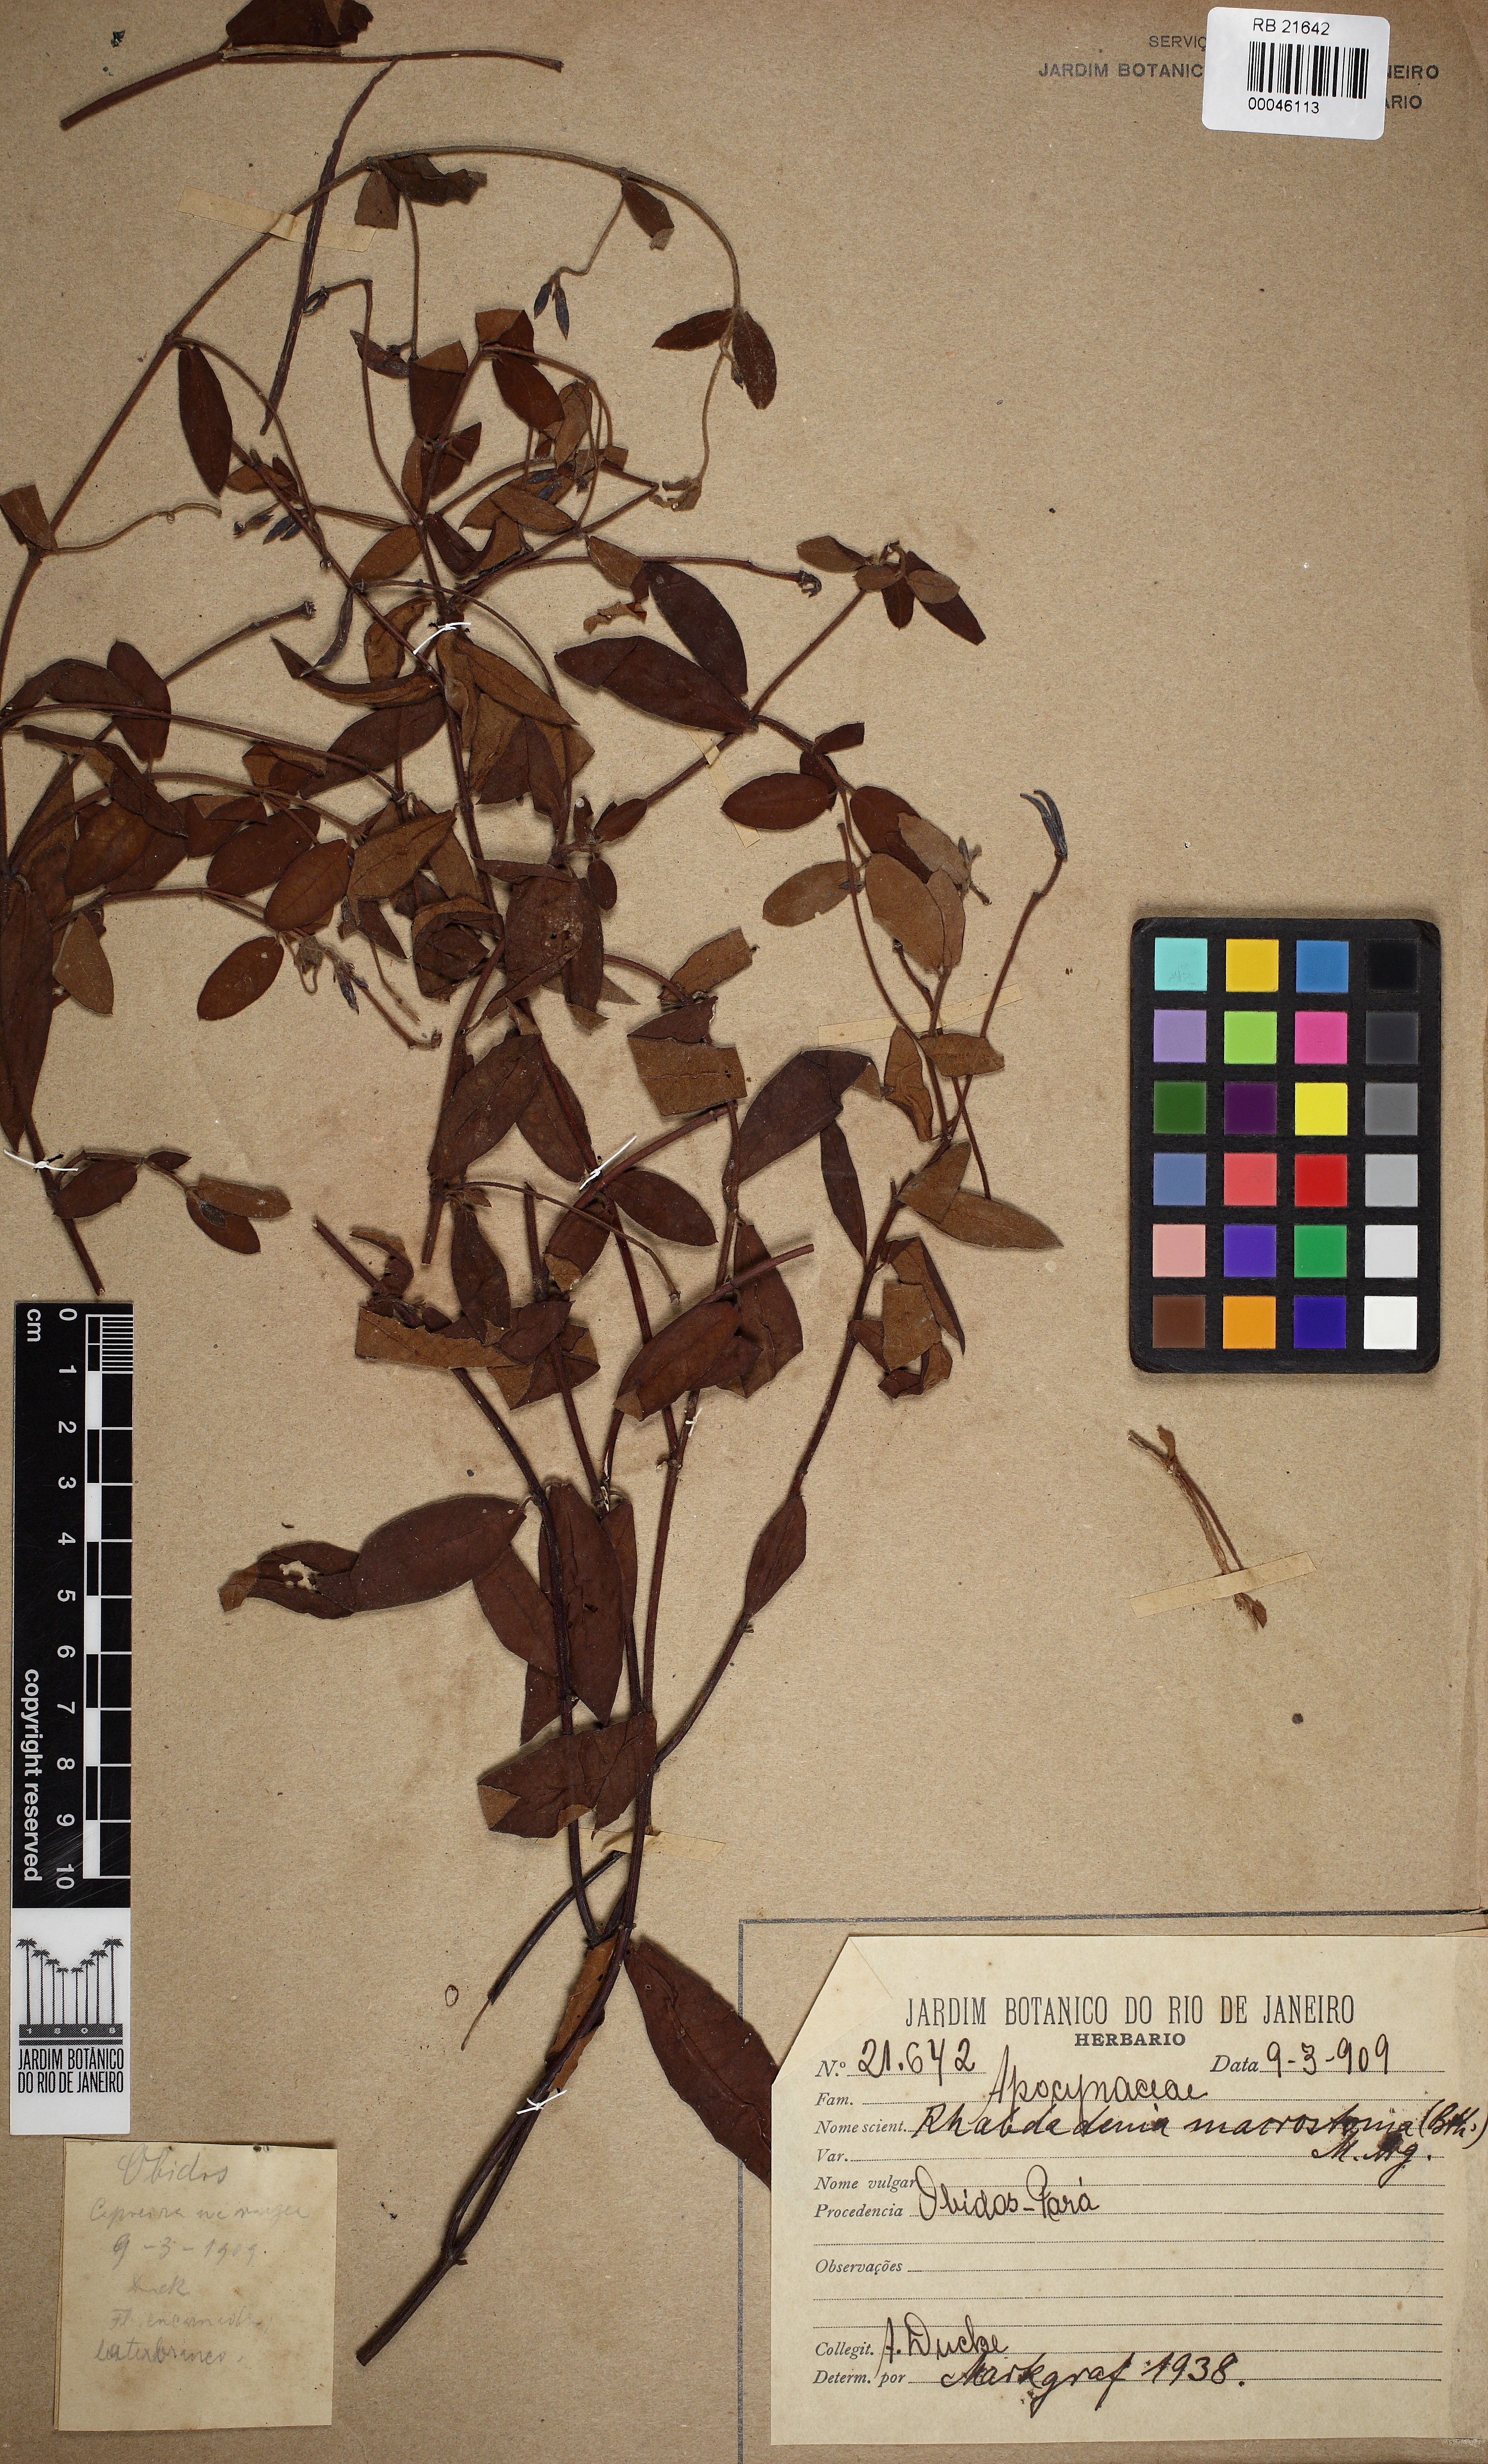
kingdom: Plantae
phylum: Tracheophyta
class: Magnoliopsida
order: Gentianales
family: Apocynaceae
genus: Rhabdadenia
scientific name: Rhabdadenia madida
